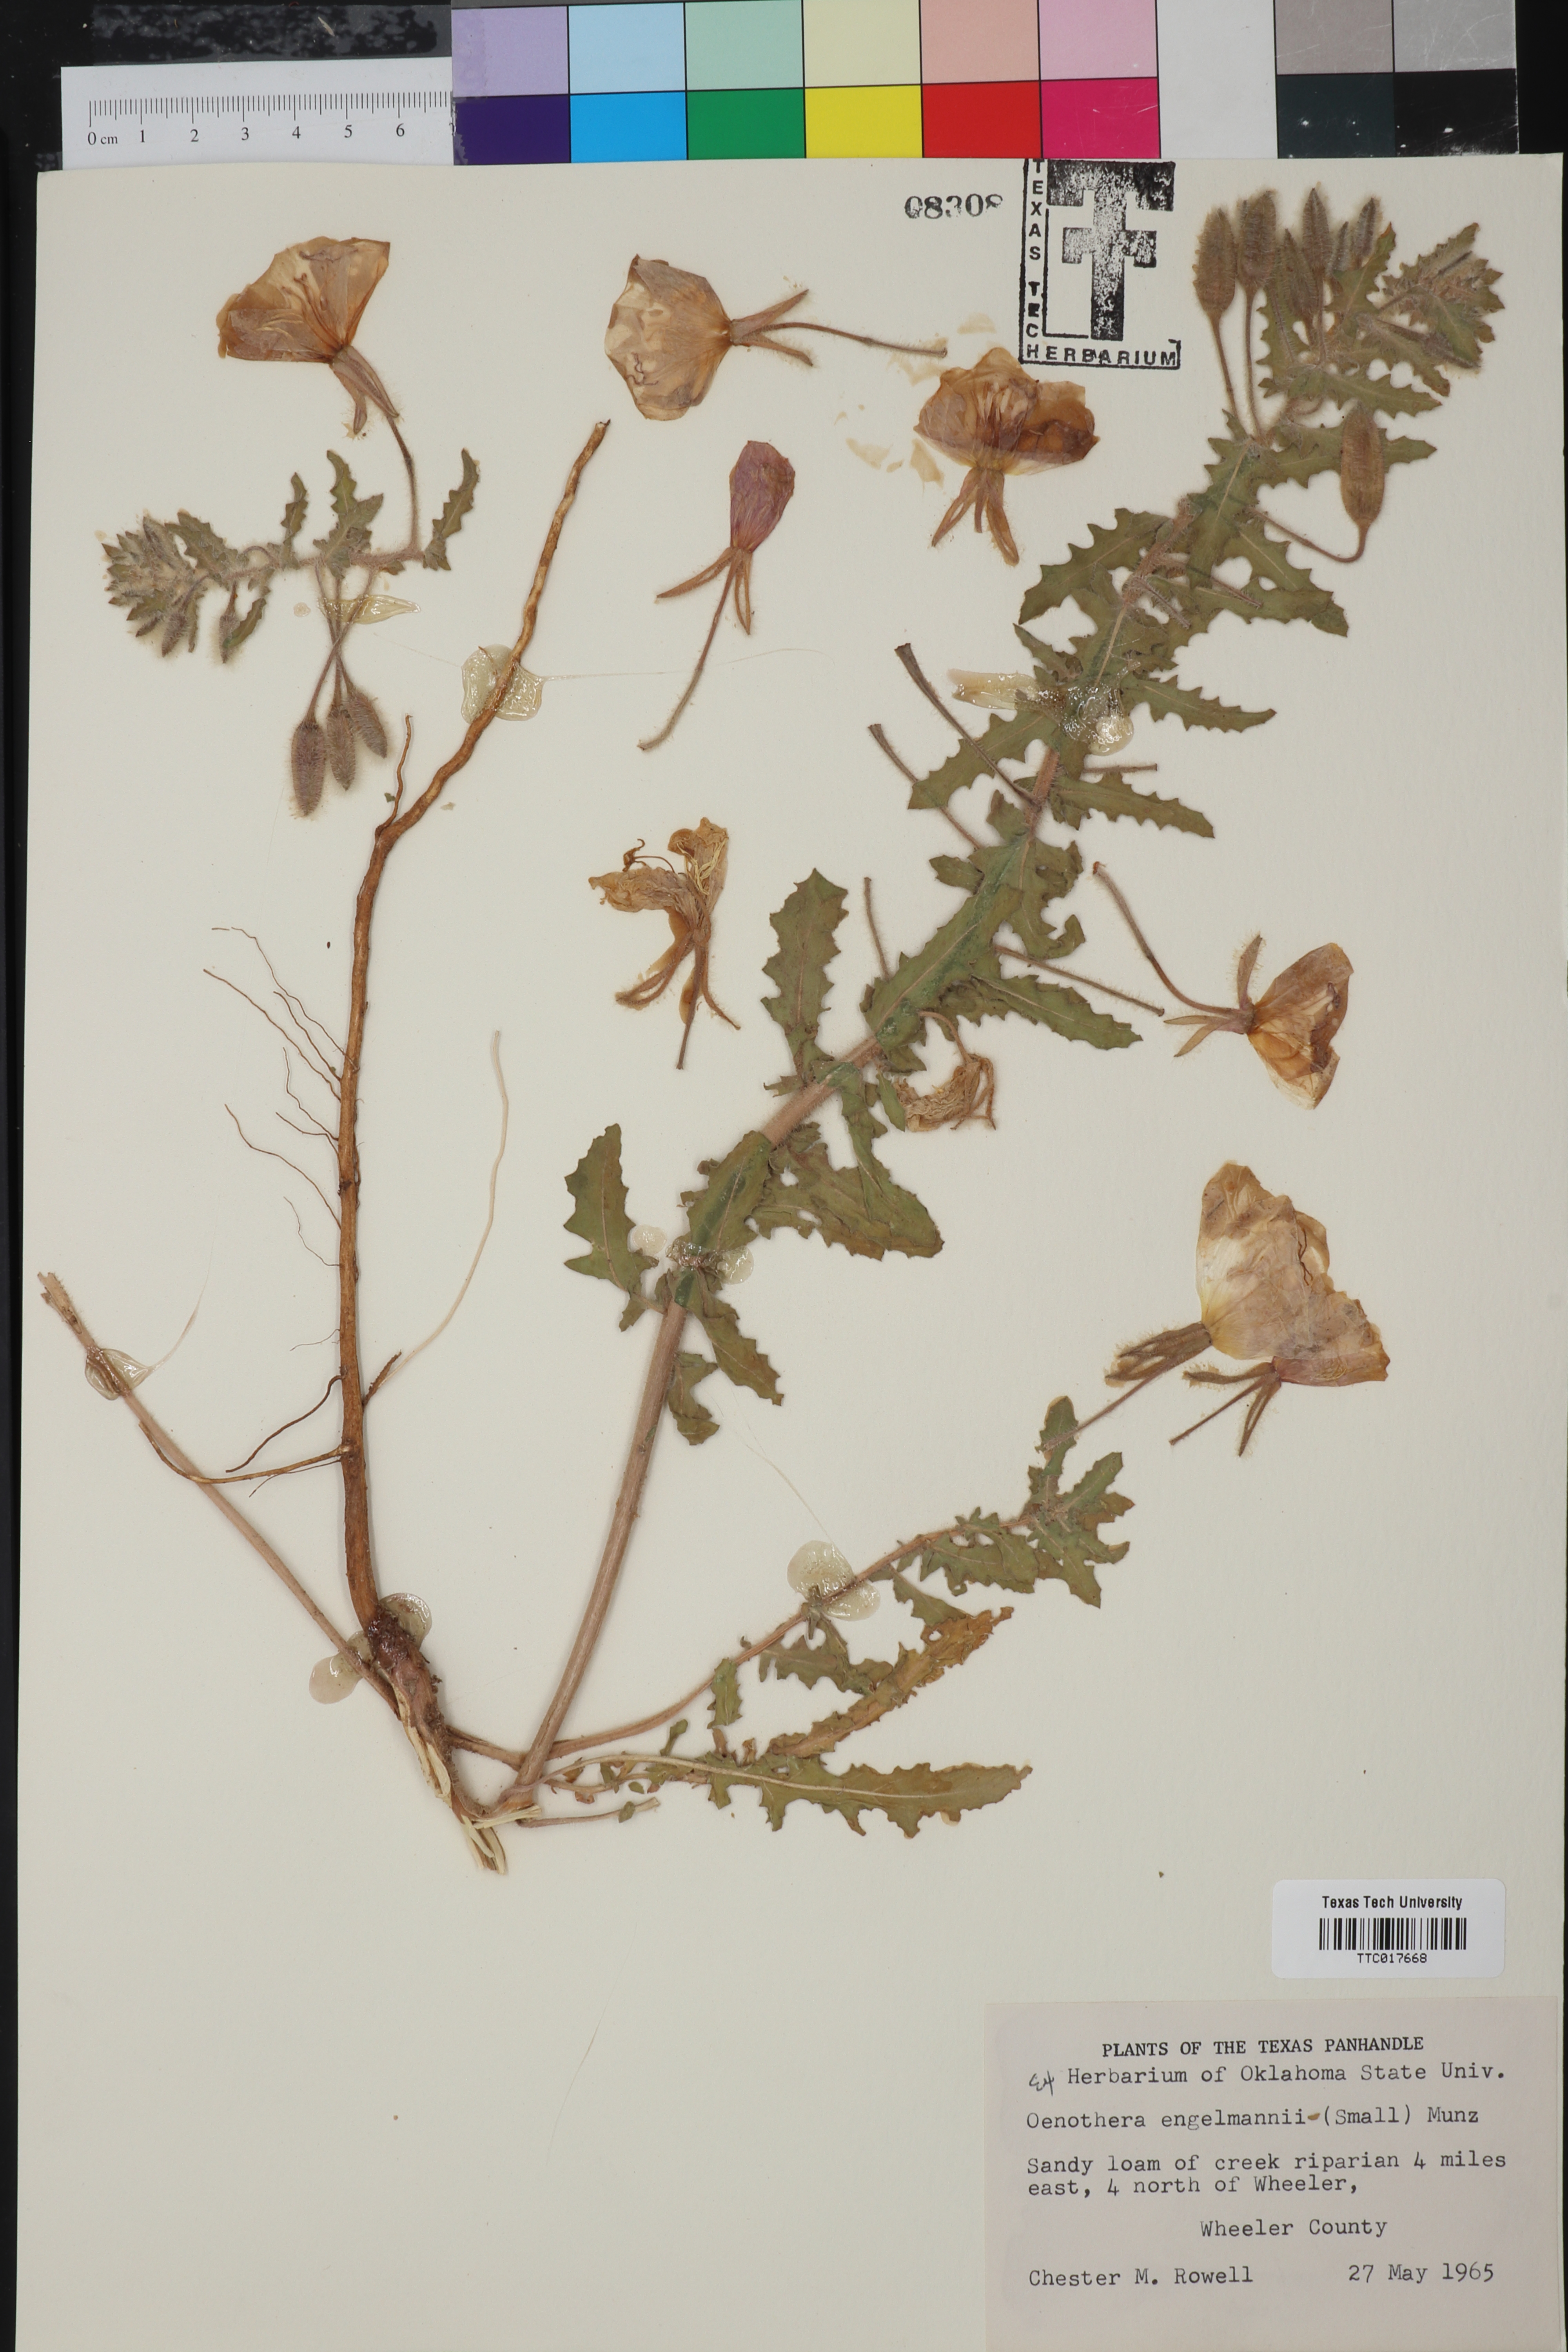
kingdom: Plantae
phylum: Tracheophyta
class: Magnoliopsida
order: Myrtales
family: Onagraceae
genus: Oenothera
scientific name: Oenothera engelmannii
